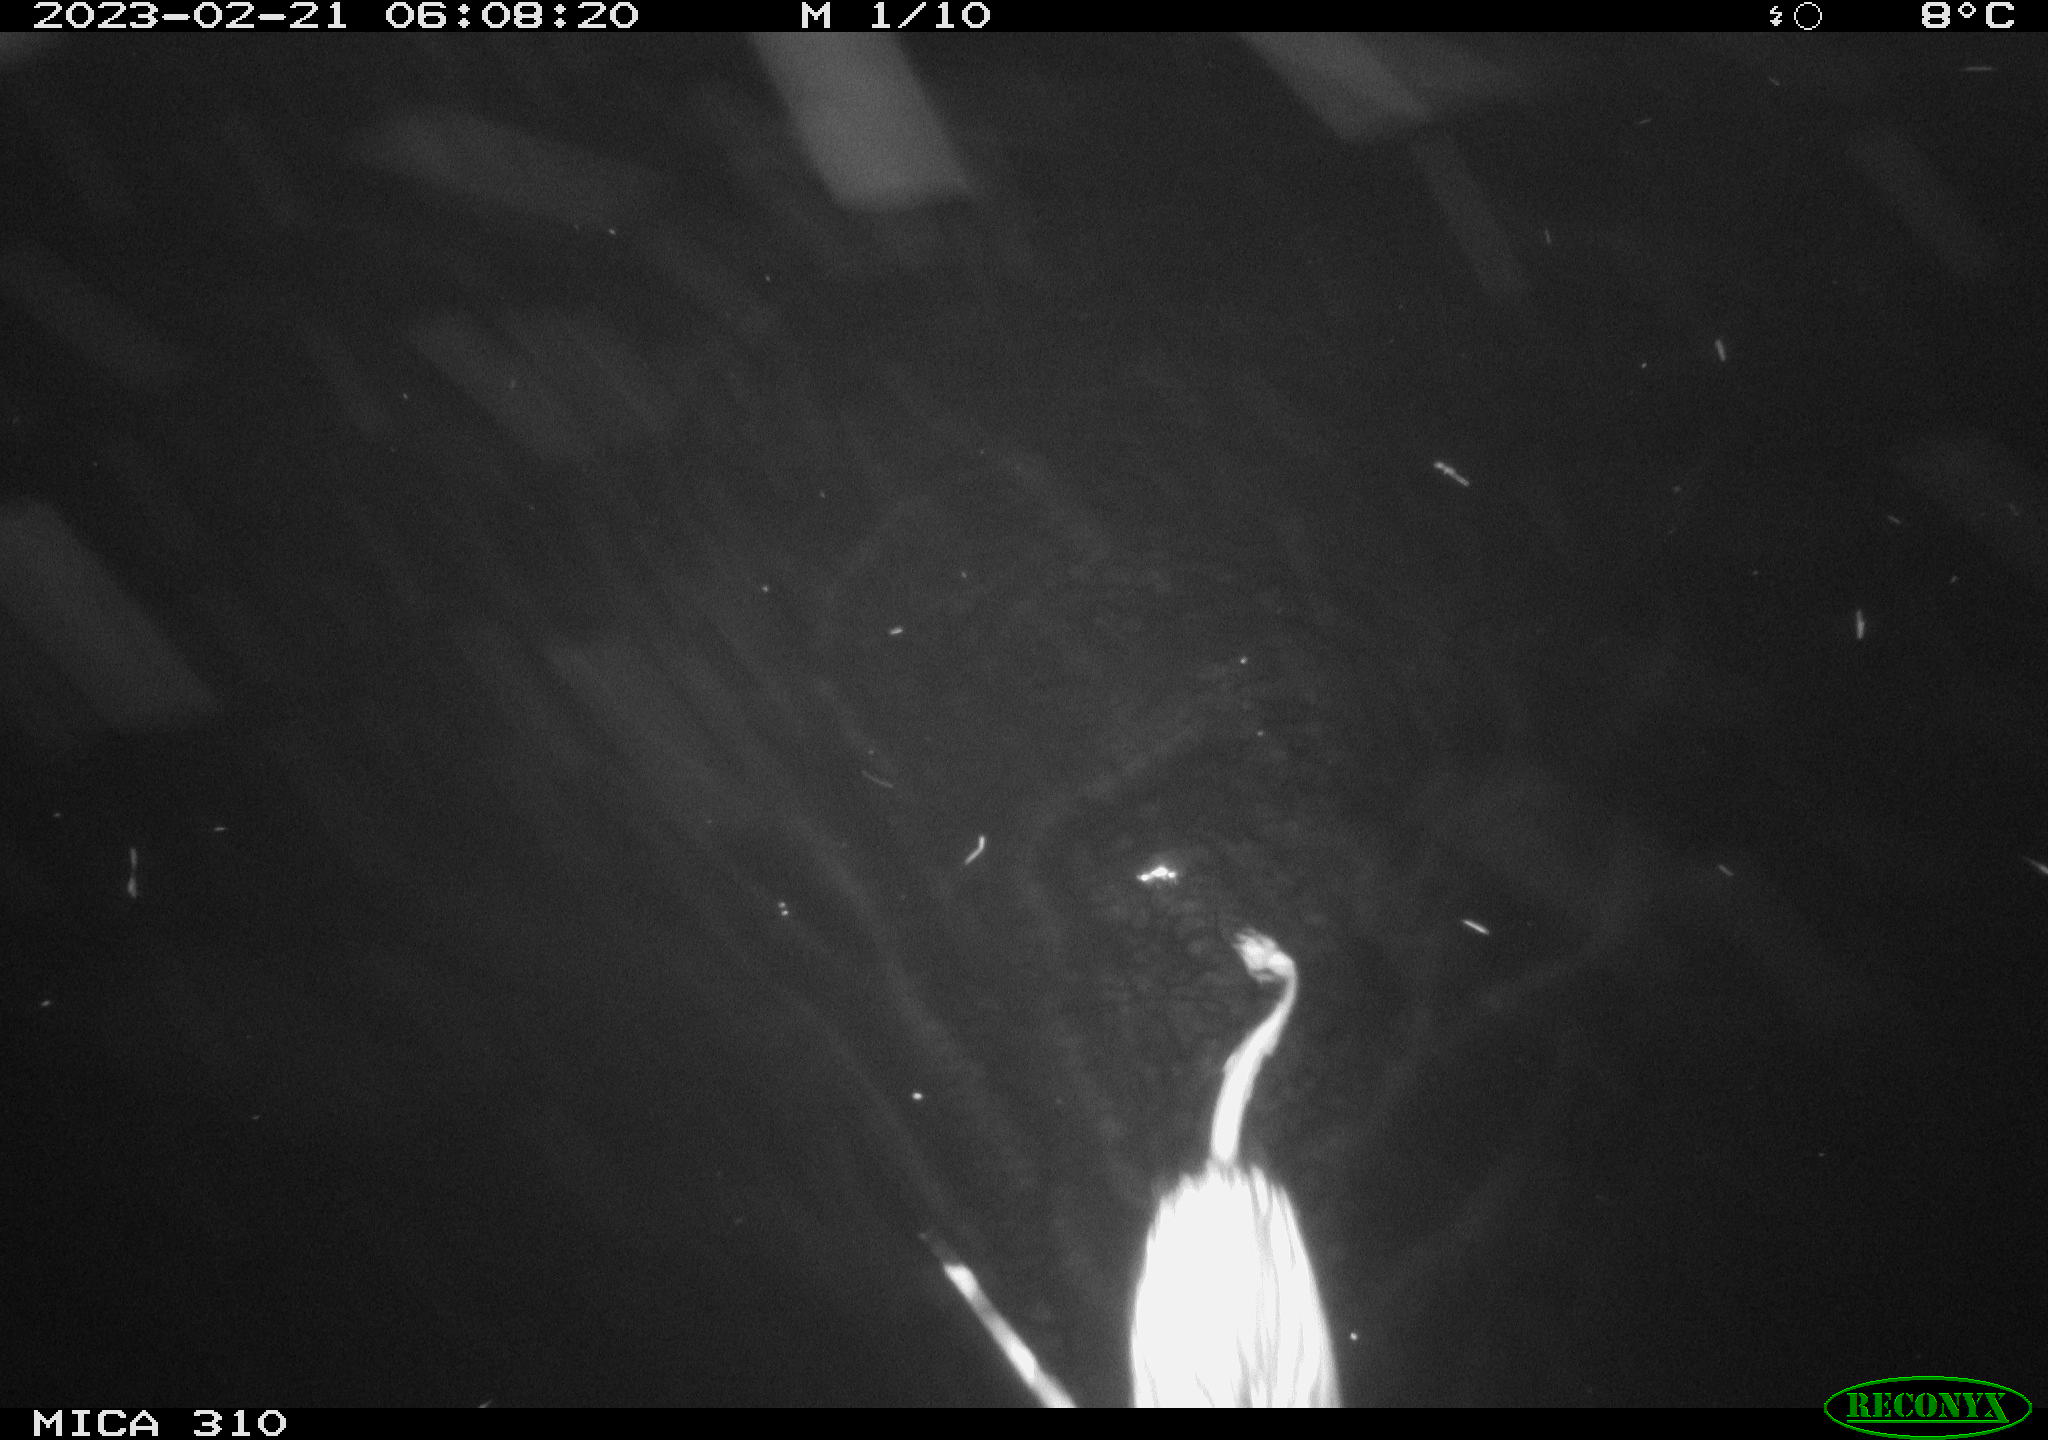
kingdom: Animalia
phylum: Chordata
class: Mammalia
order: Rodentia
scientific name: Rodentia
